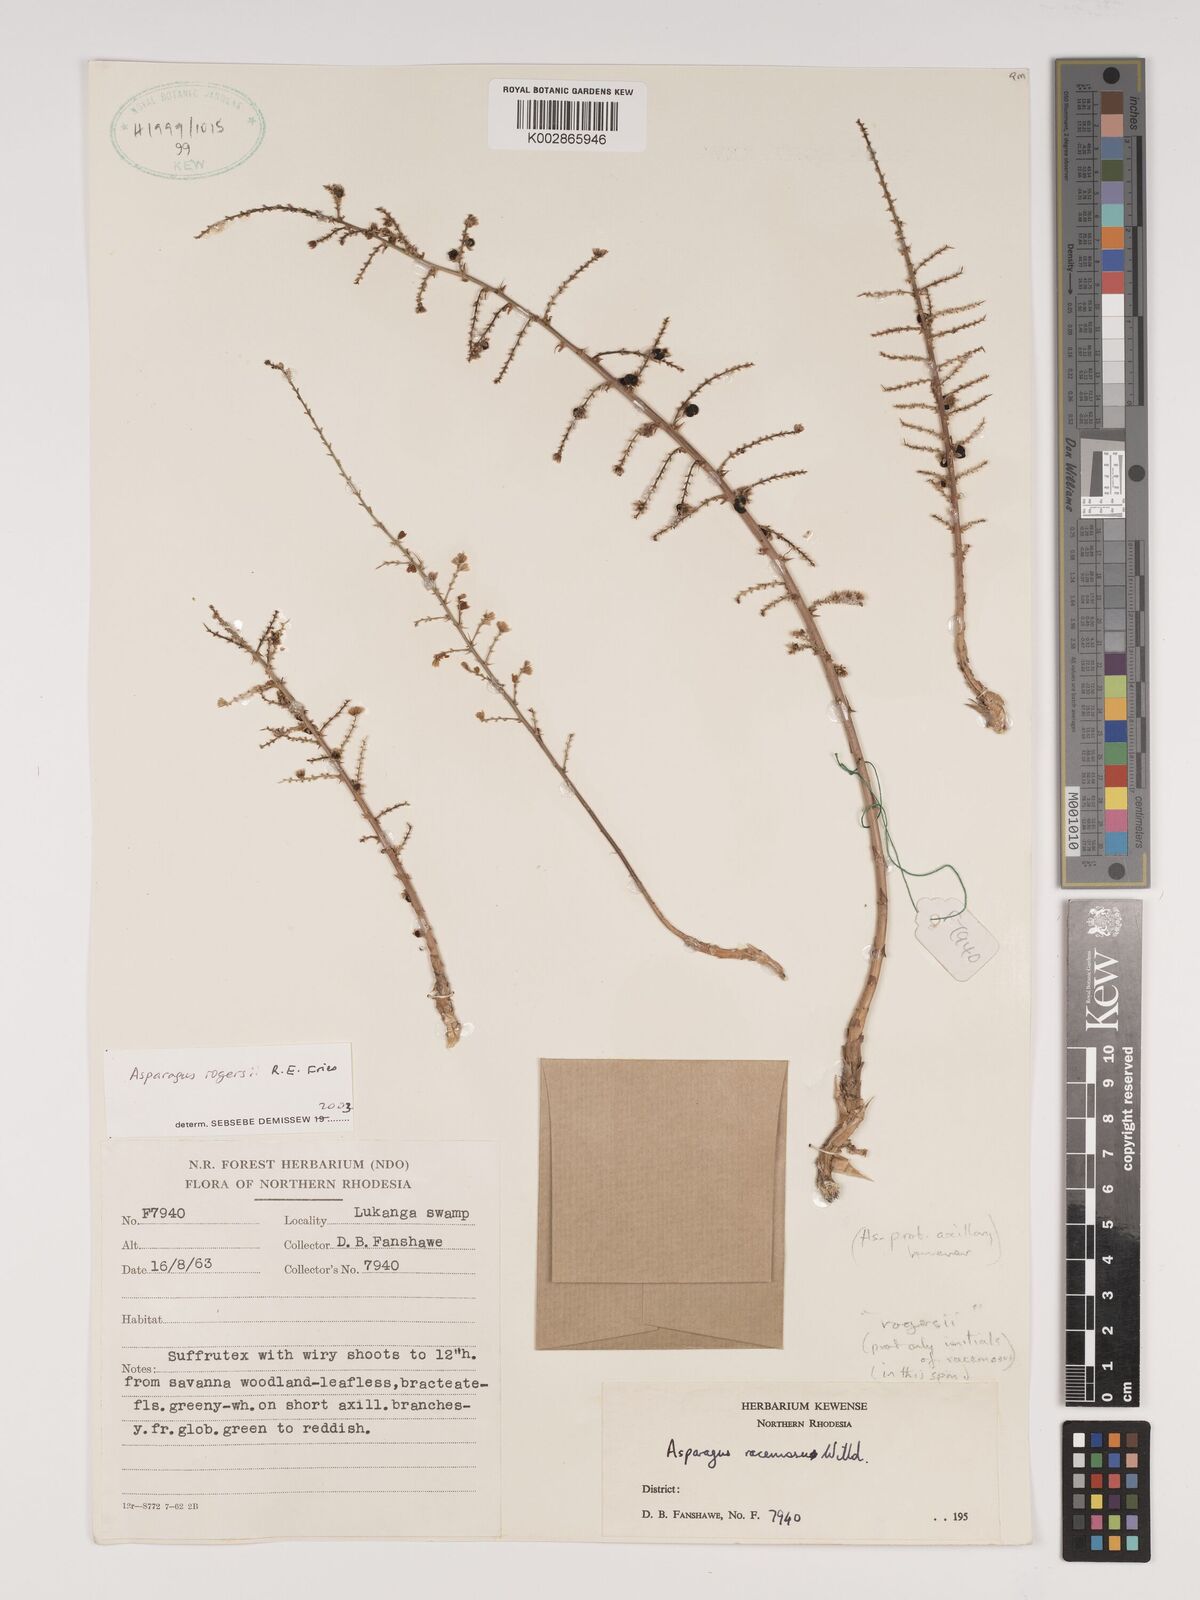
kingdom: Plantae
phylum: Tracheophyta
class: Liliopsida
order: Asparagales
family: Asparagaceae
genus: Asparagus
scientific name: Asparagus rogersii
